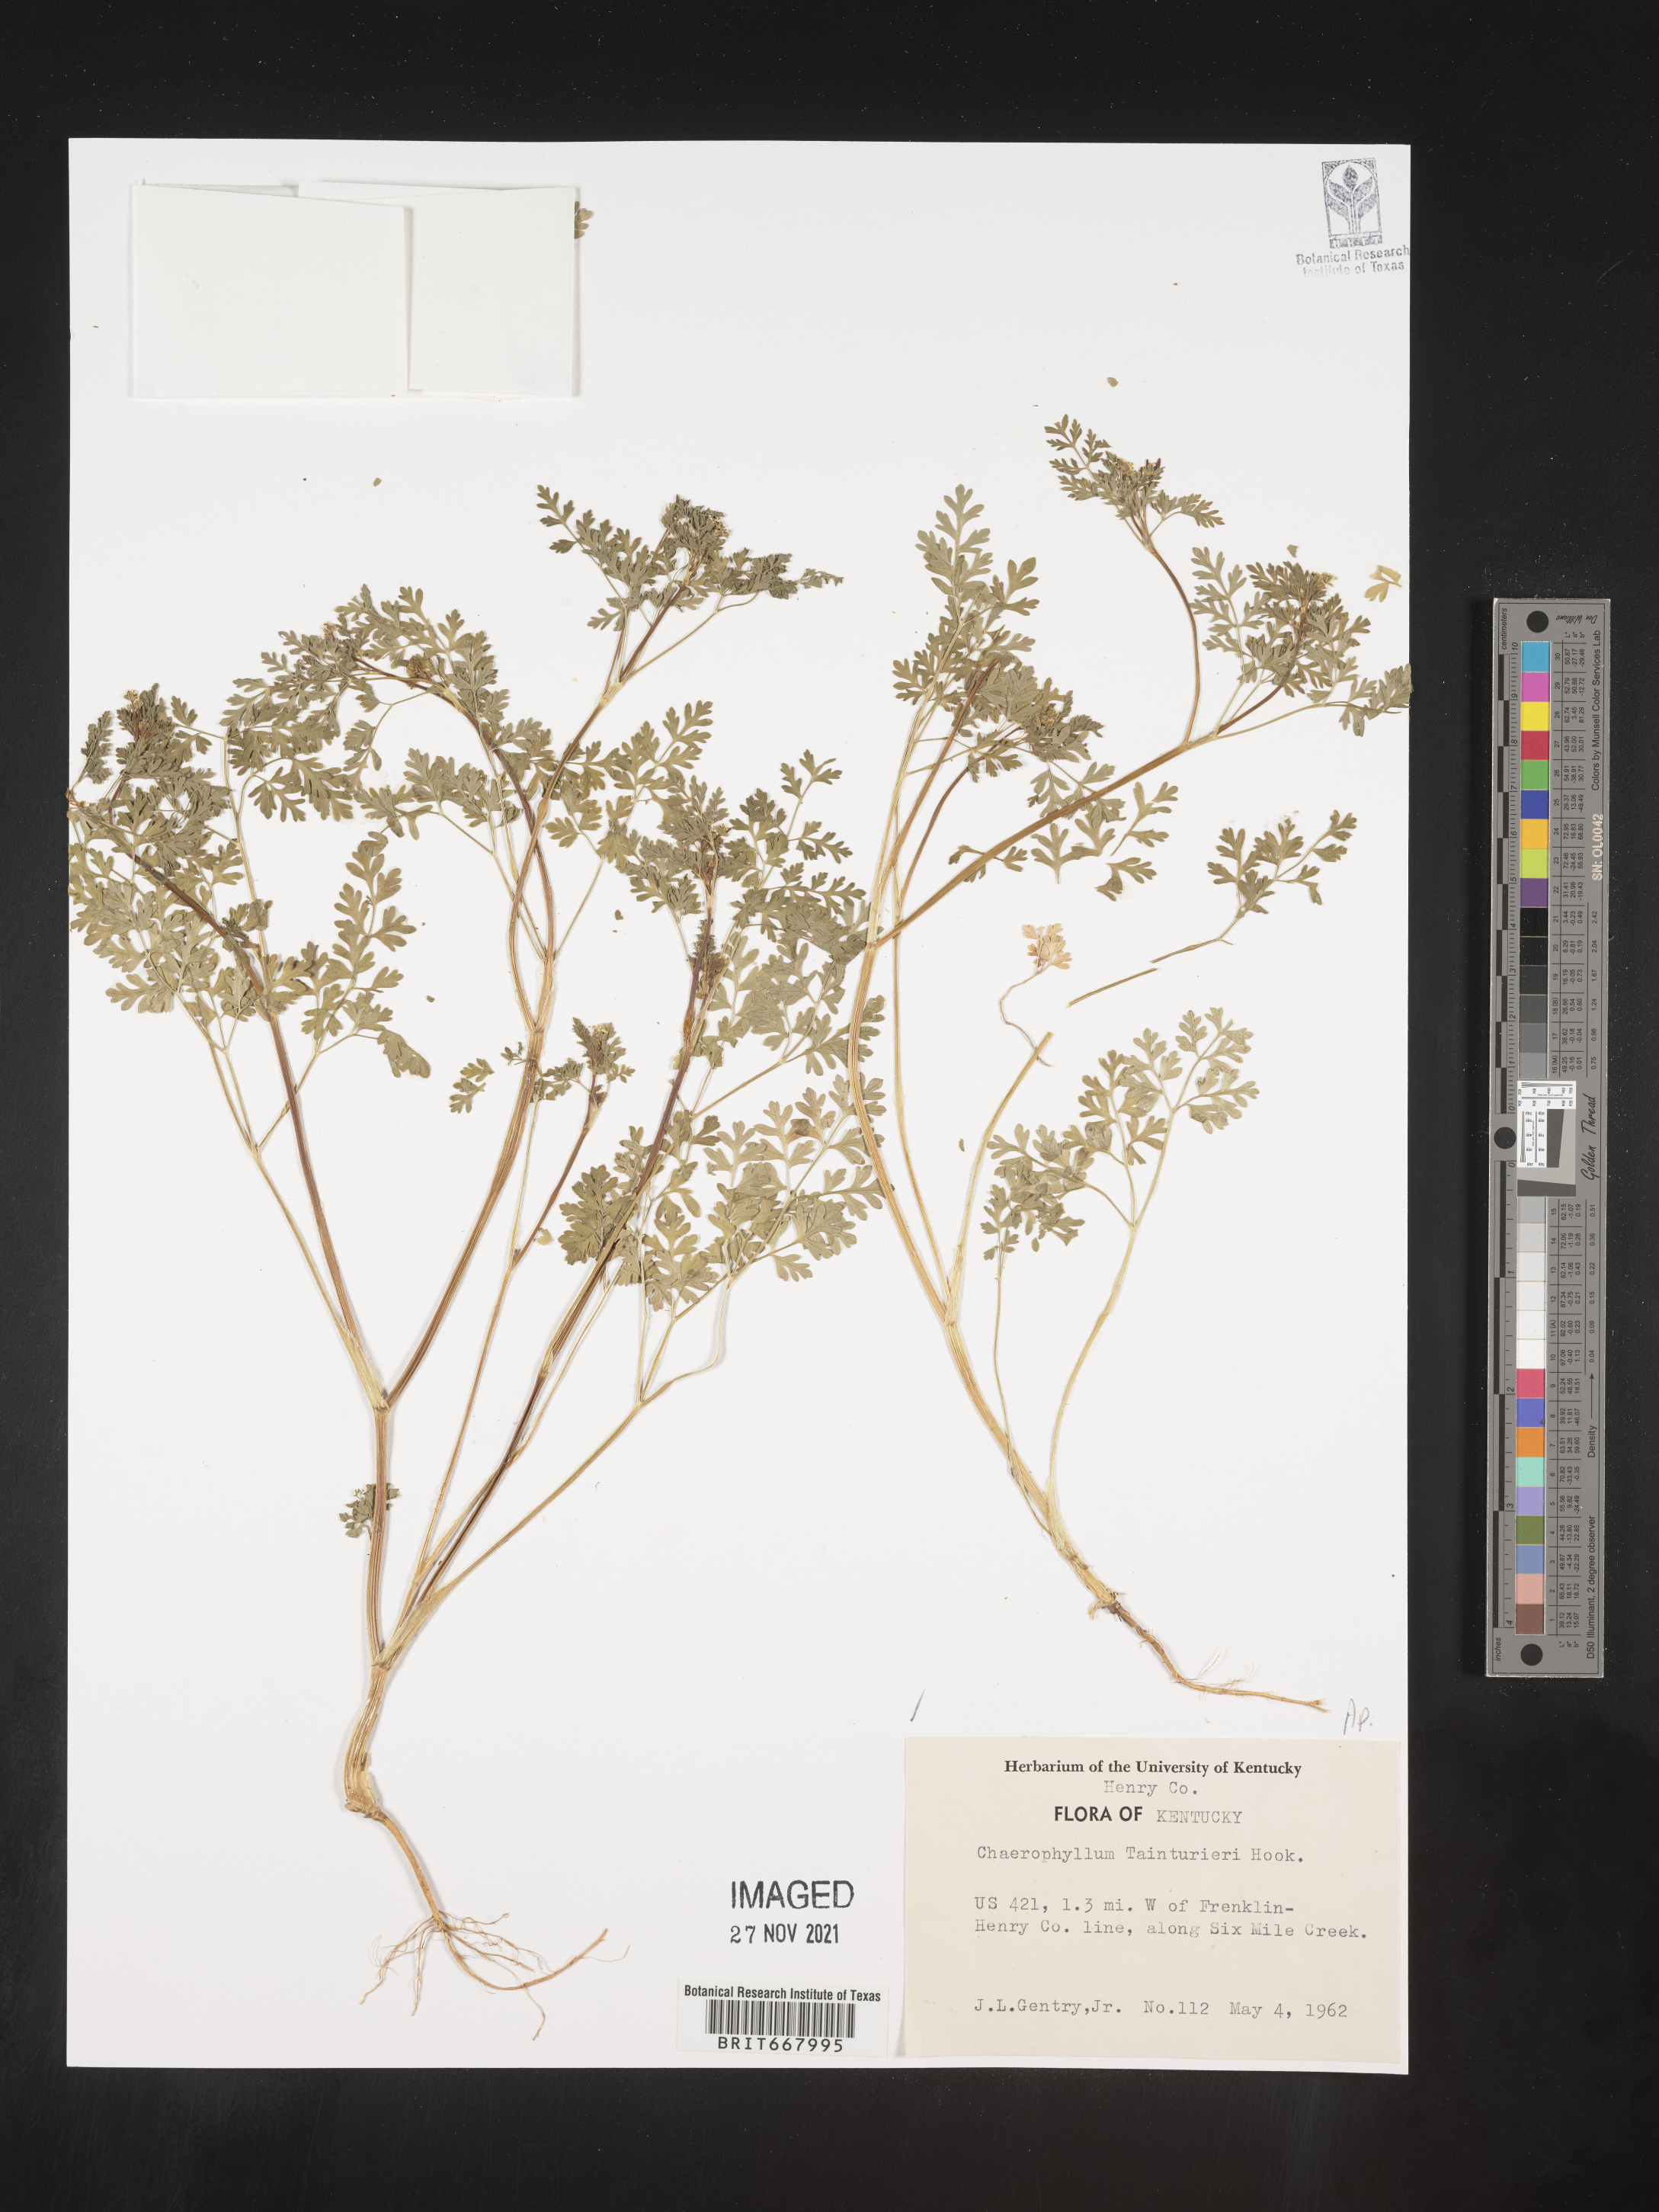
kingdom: Plantae
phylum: Tracheophyta
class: Magnoliopsida
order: Apiales
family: Apiaceae
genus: Chaerophyllum
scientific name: Chaerophyllum tainturieri
